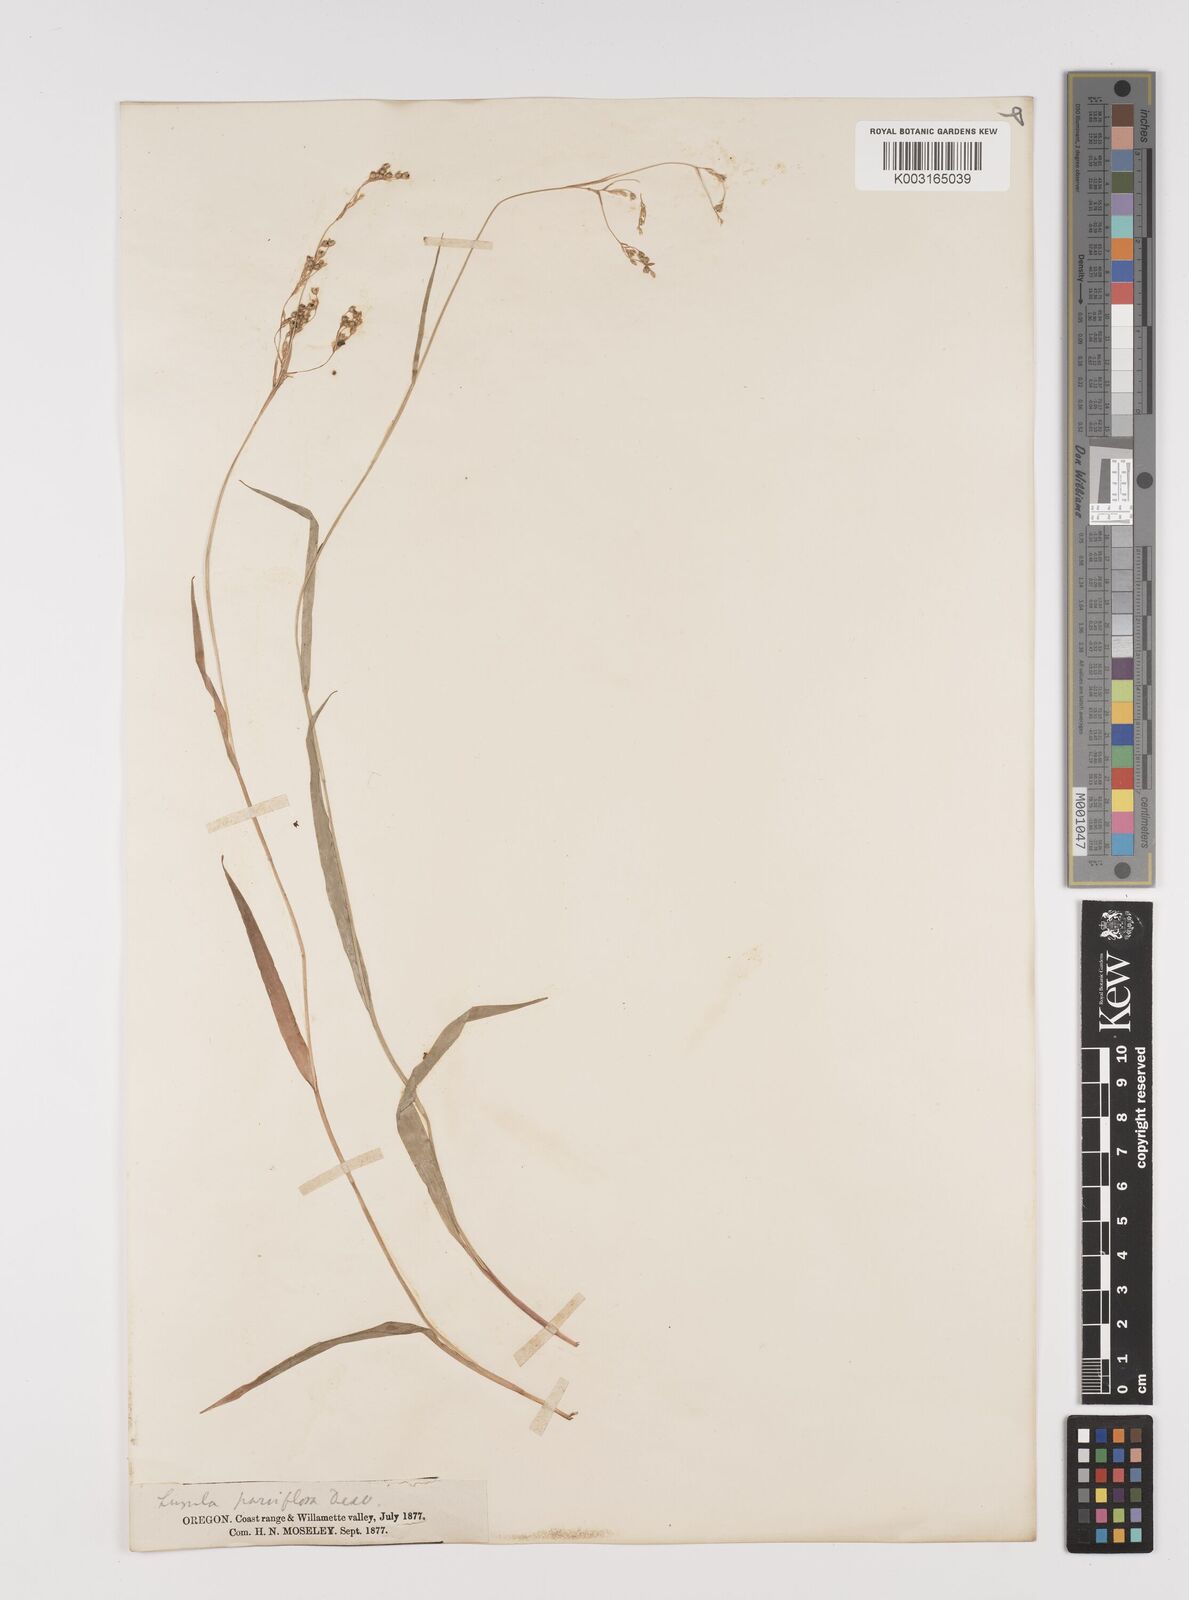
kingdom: Plantae
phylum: Tracheophyta
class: Liliopsida
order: Poales
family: Juncaceae
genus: Luzula
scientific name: Luzula parviflora
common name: Millet woodrush
